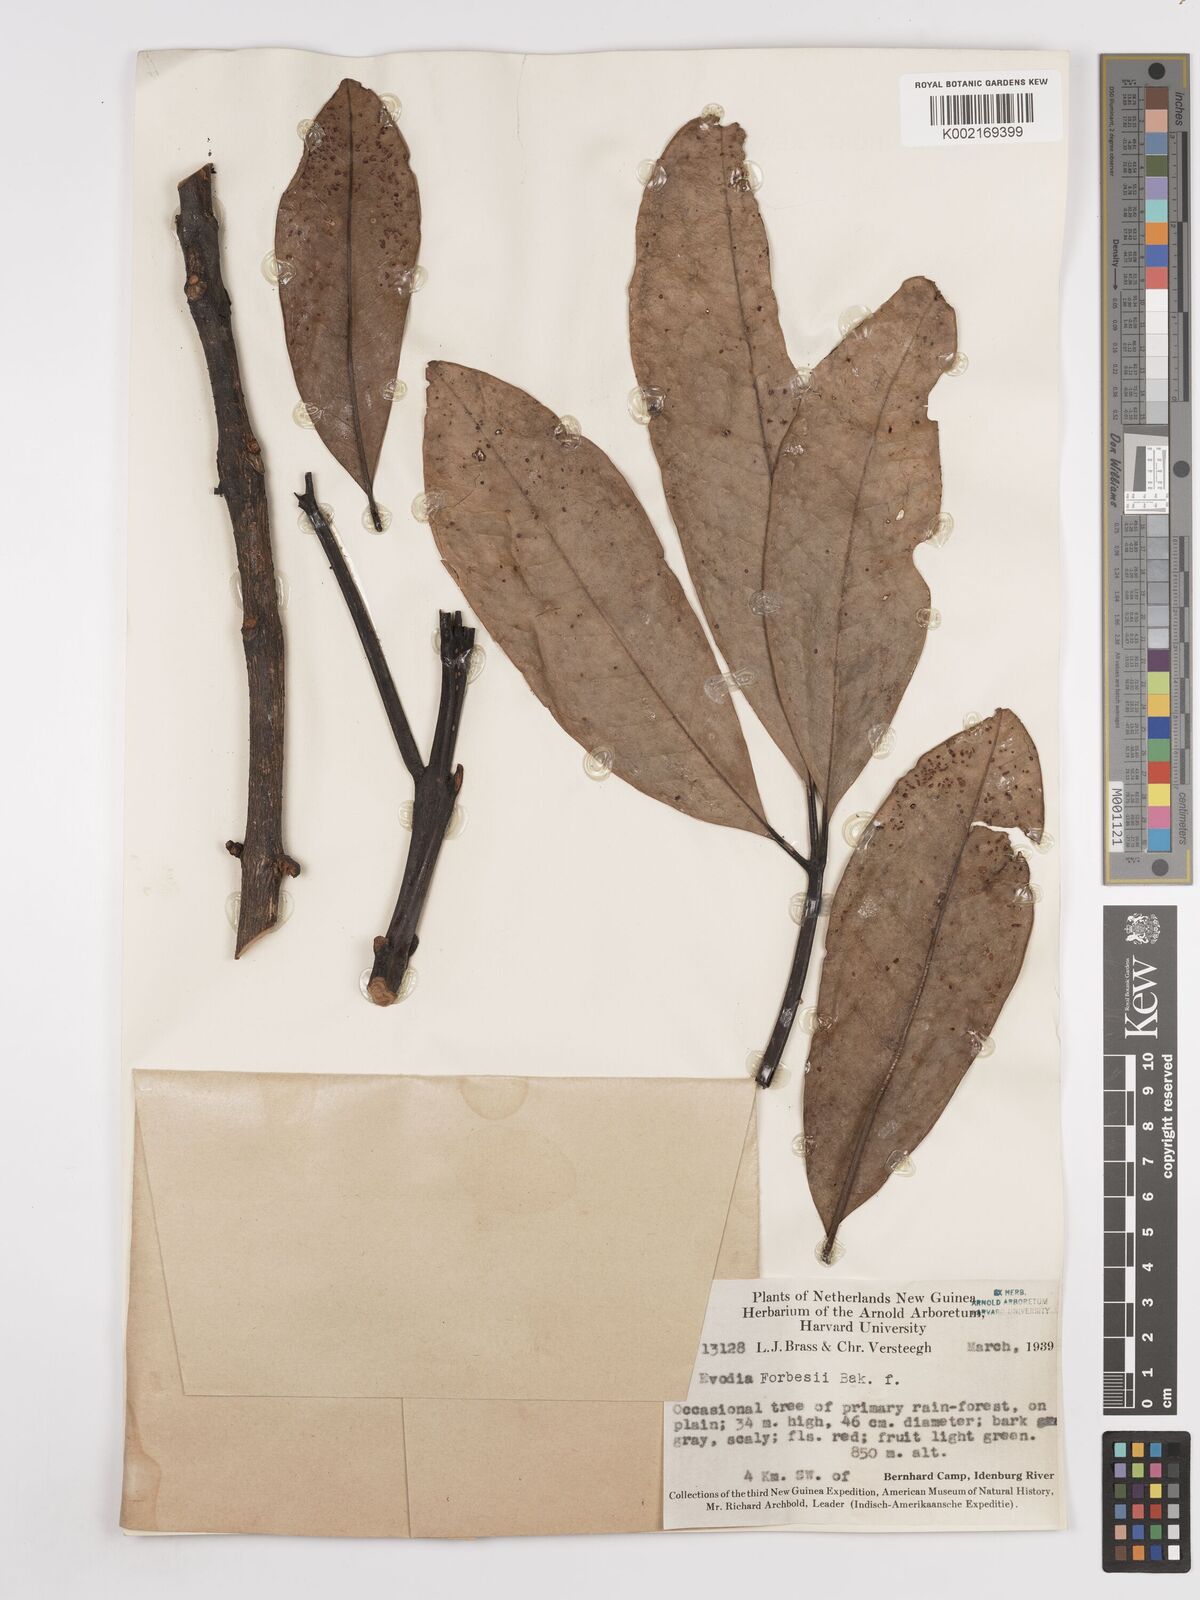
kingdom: Plantae
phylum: Tracheophyta
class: Magnoliopsida
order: Sapindales
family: Rutaceae
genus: Melicope
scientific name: Melicope forbesii
